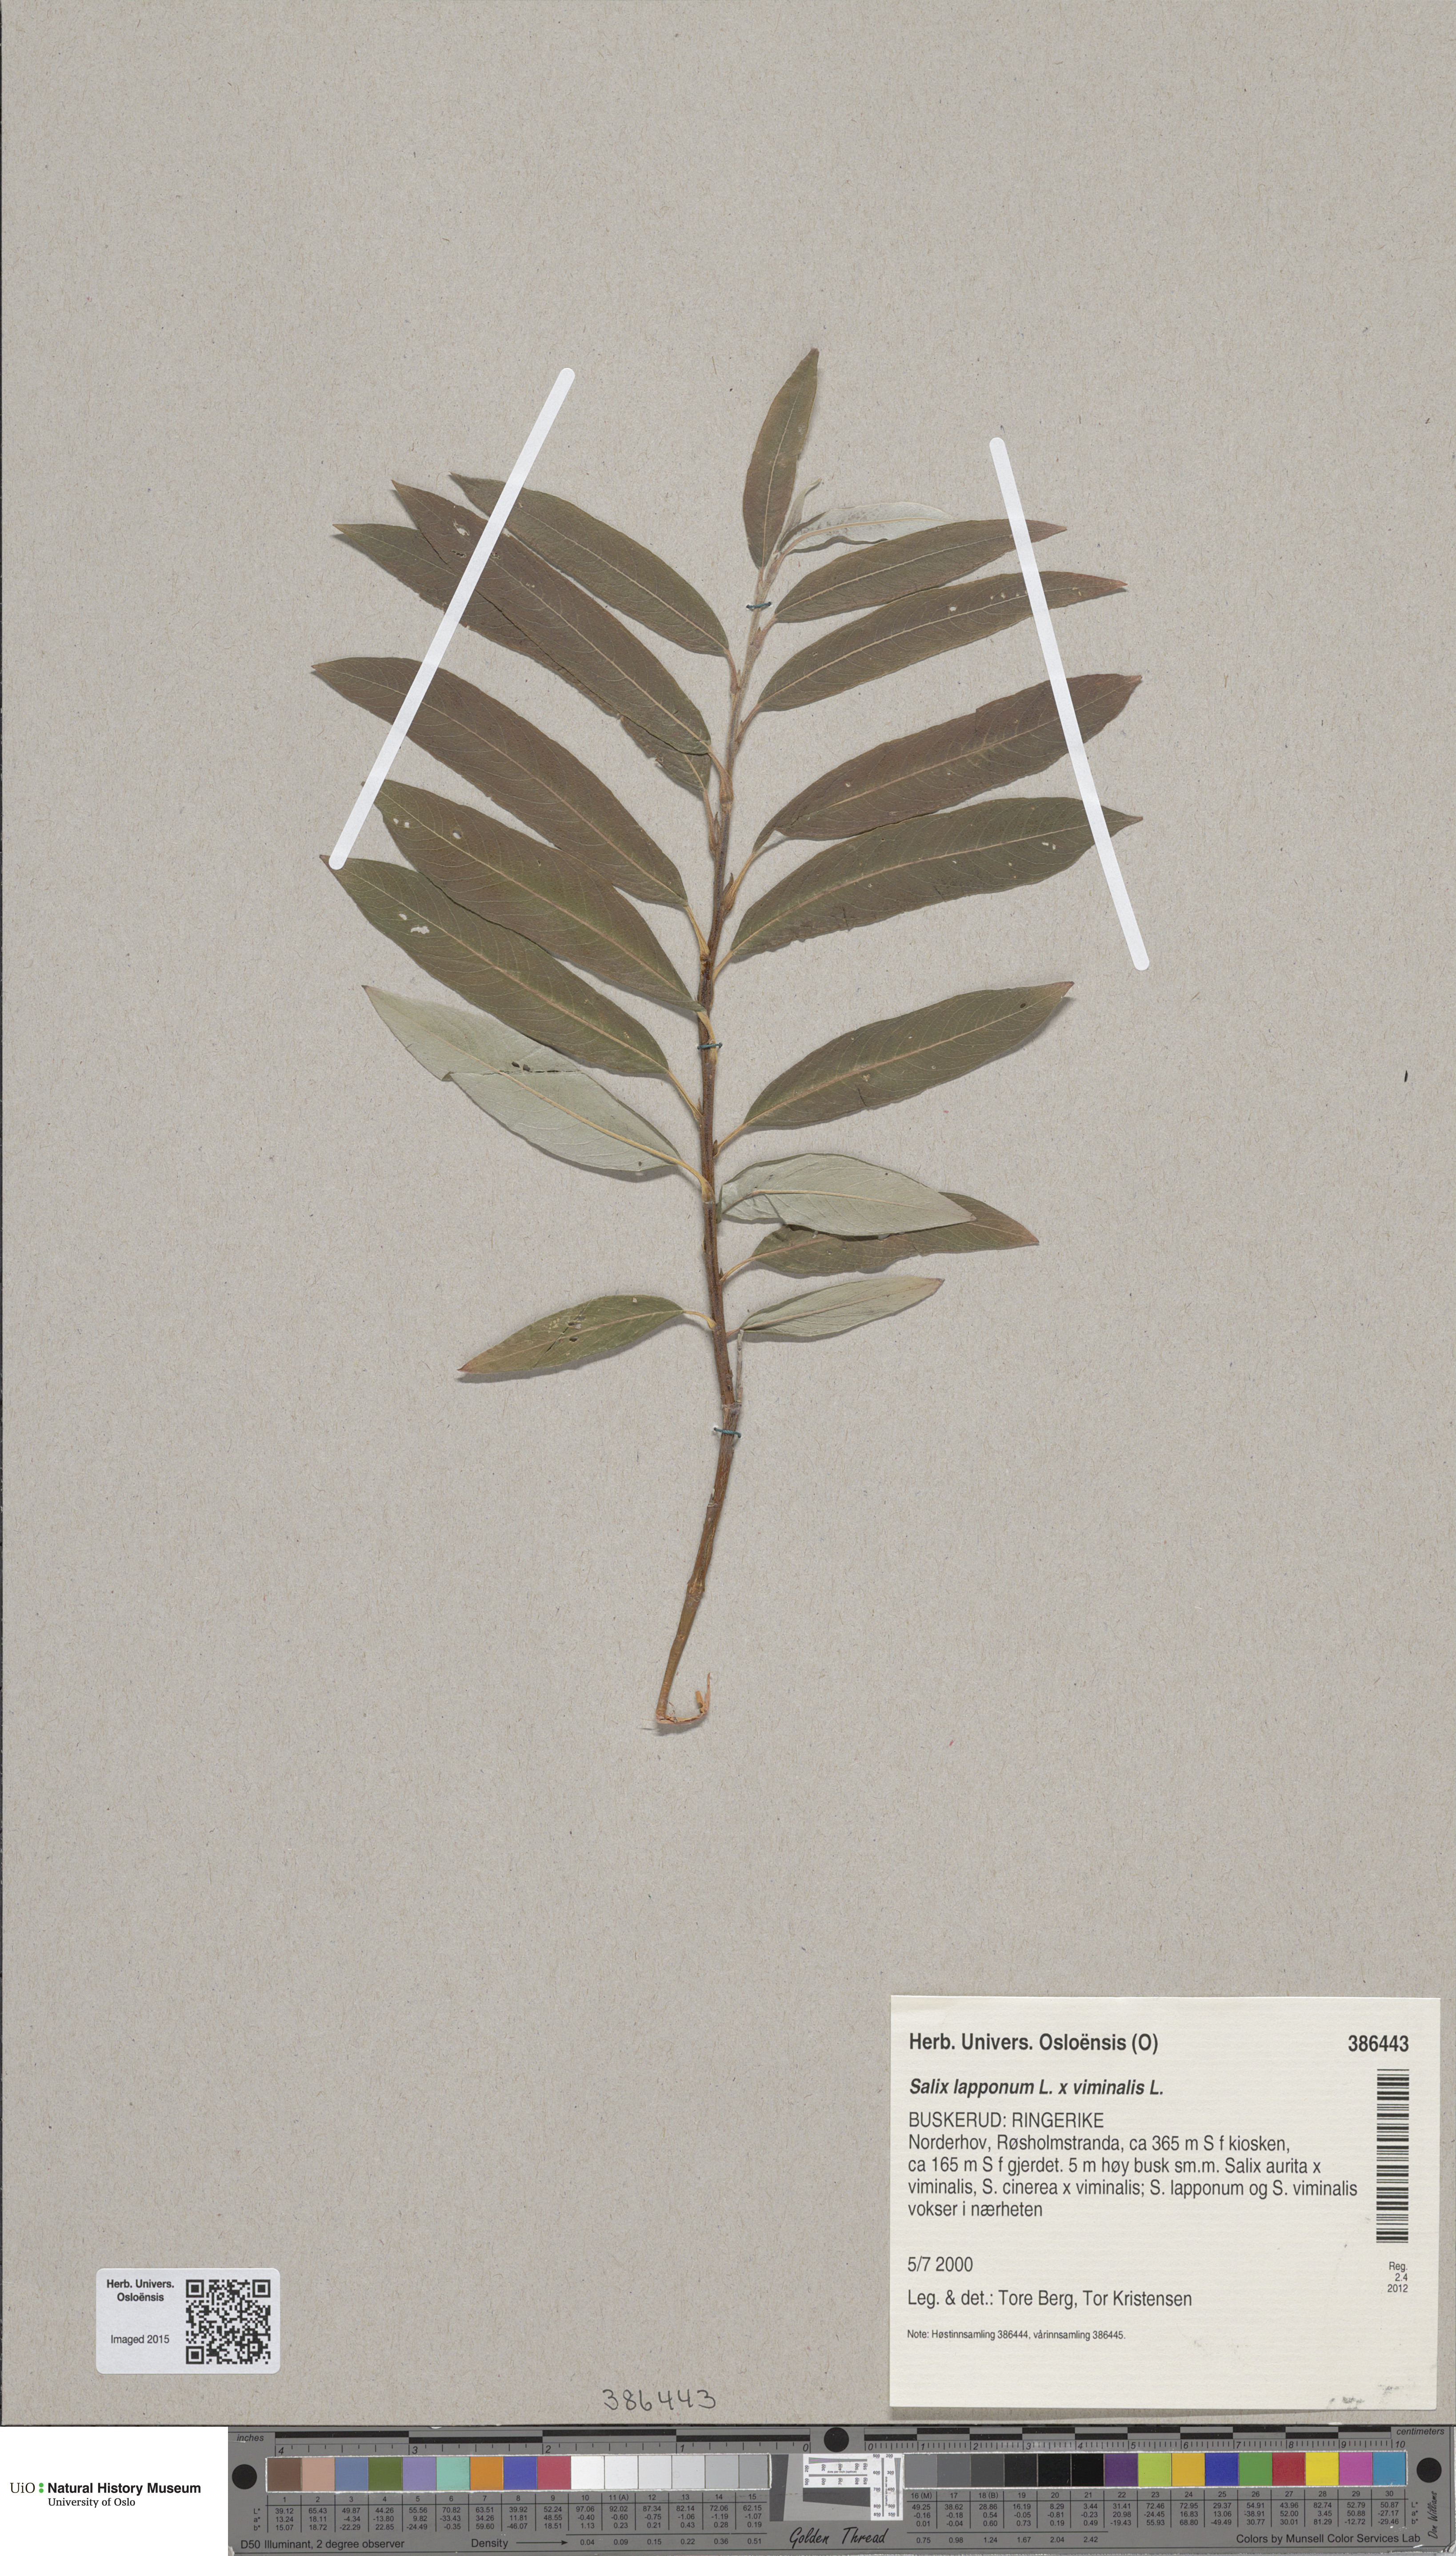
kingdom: Plantae
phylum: Tracheophyta
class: Magnoliopsida
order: Malpighiales
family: Salicaceae
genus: Salix
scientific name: Salix
